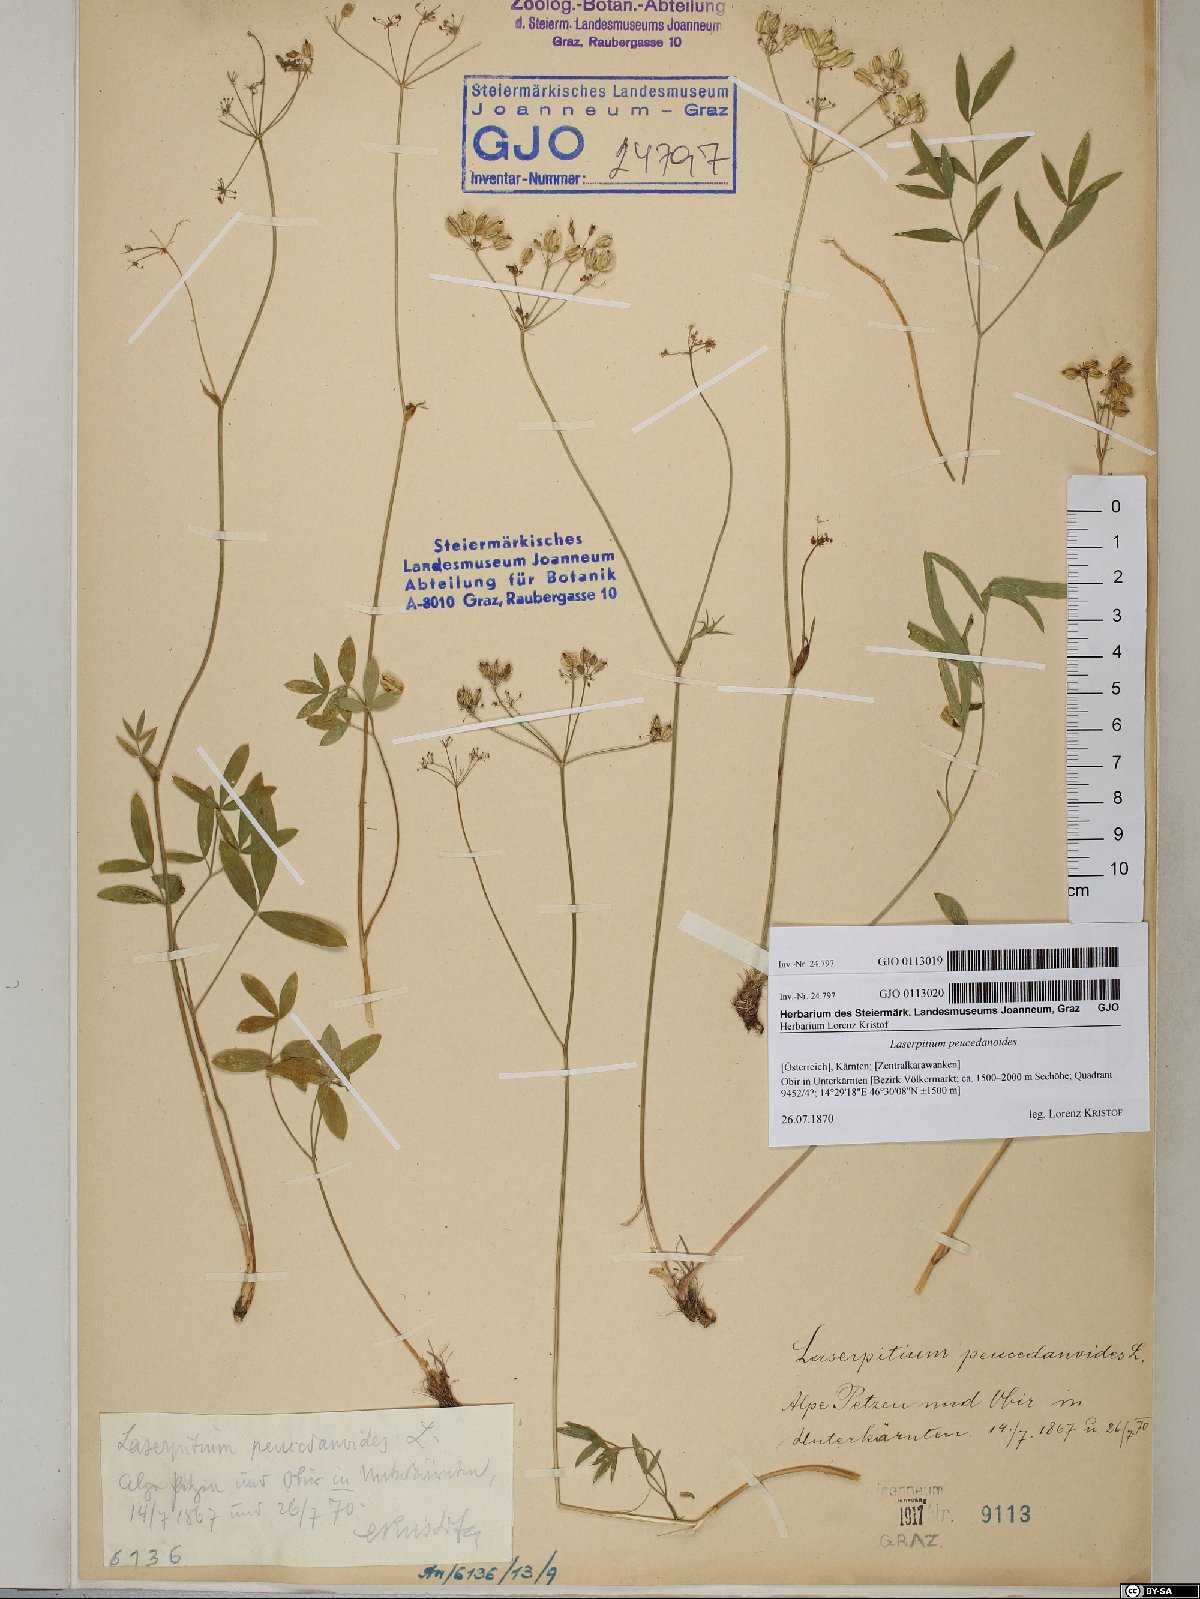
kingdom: Plantae
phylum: Tracheophyta
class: Magnoliopsida
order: Apiales
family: Apiaceae
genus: Laserpitium
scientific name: Laserpitium peucedanoides
